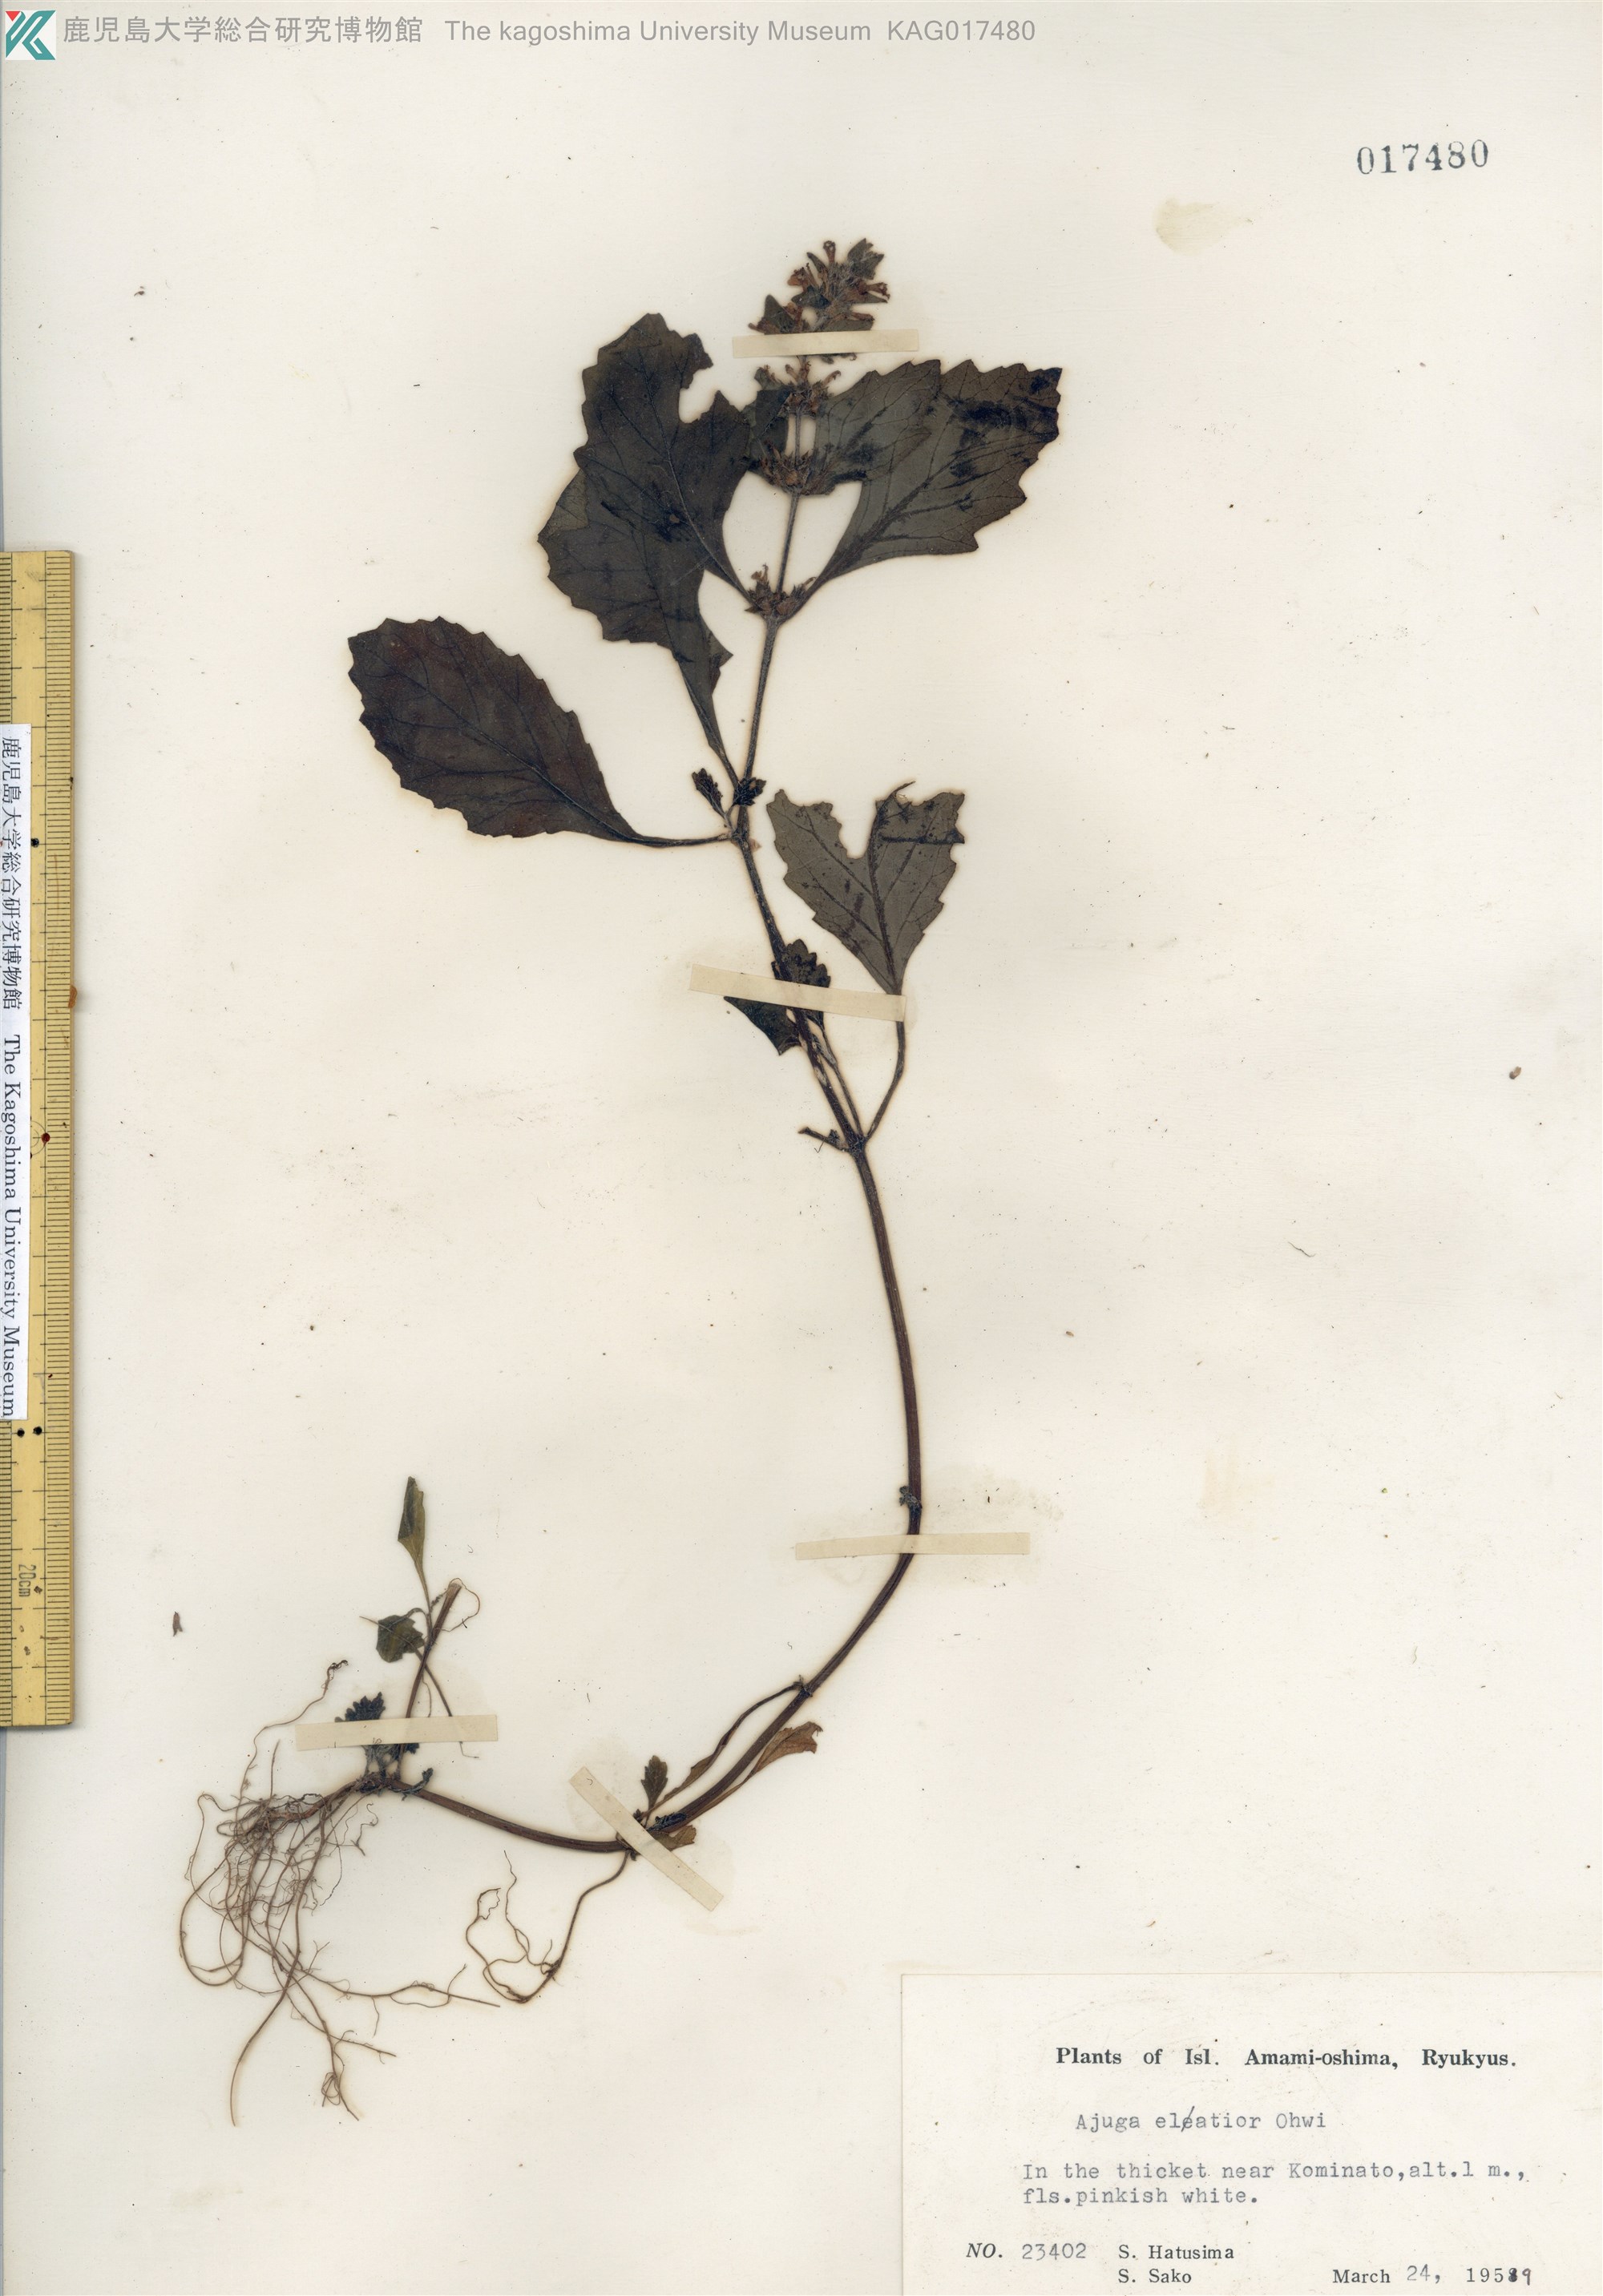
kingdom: Plantae
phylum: Tracheophyta
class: Magnoliopsida
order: Lamiales
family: Lamiaceae
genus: Ajuga
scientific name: Ajuga dictyocarpa
